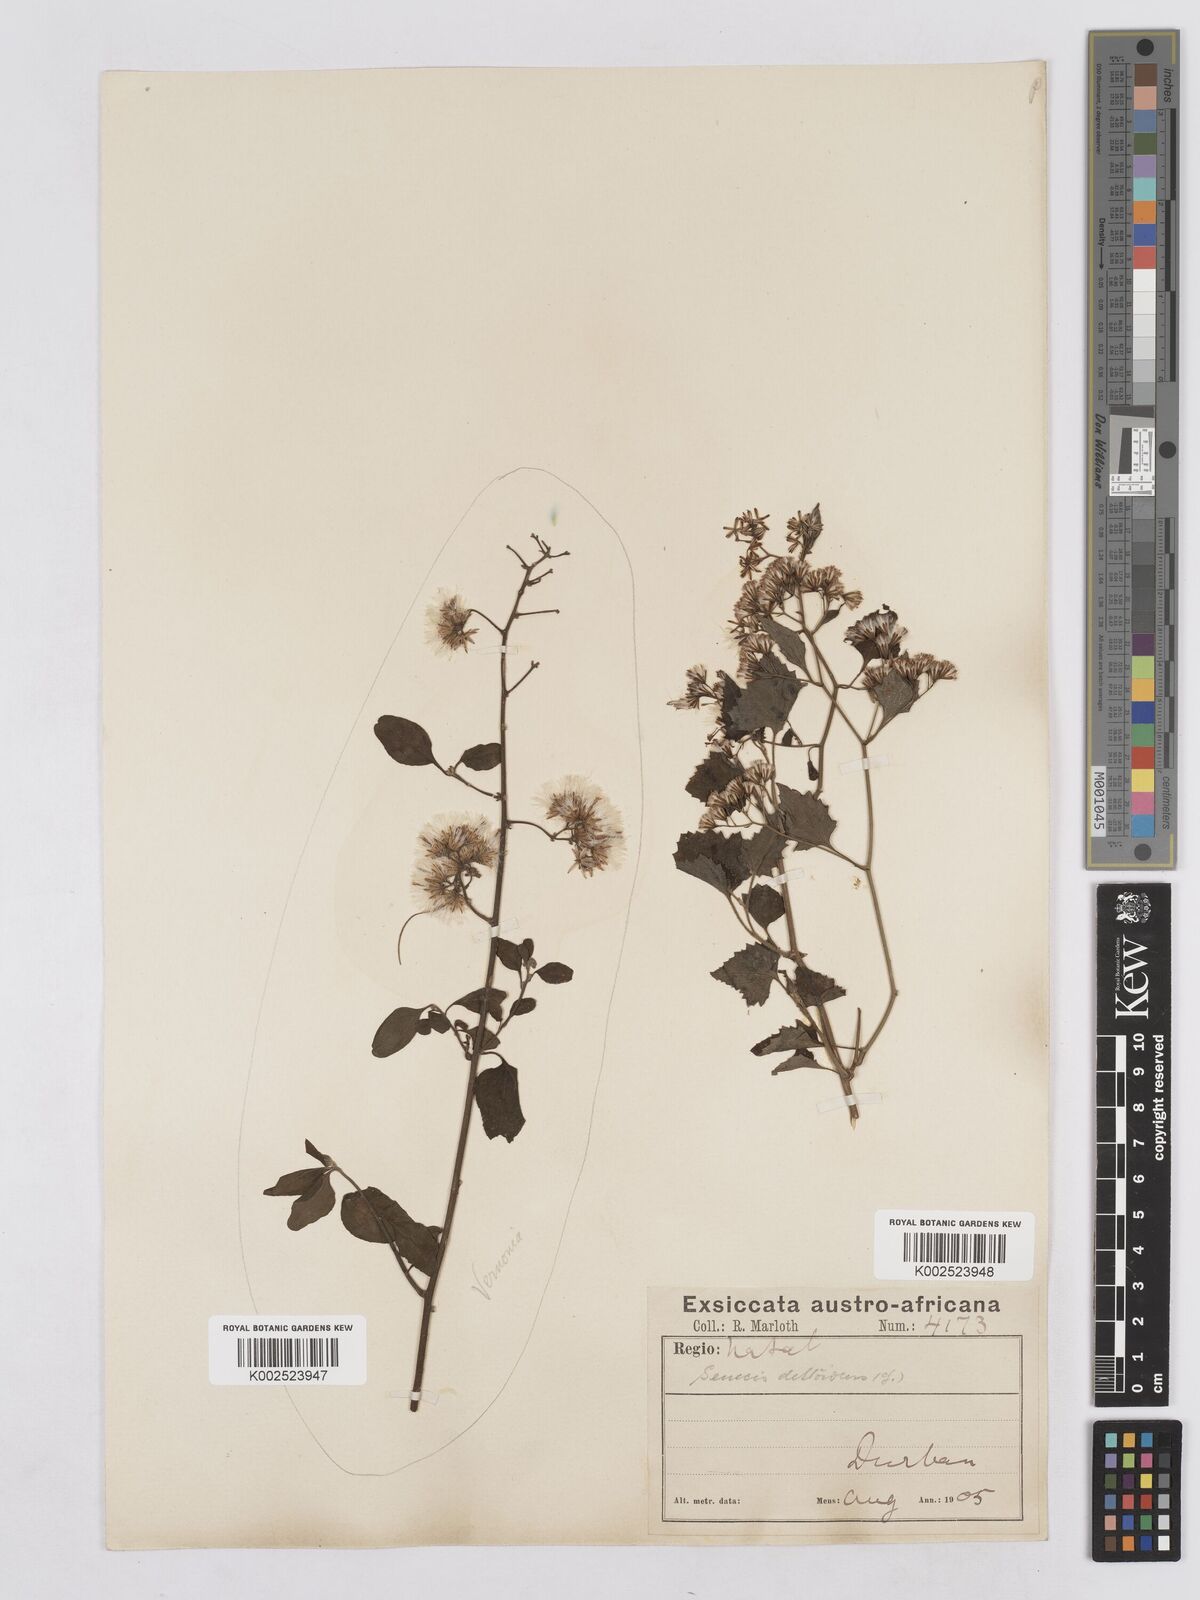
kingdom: Plantae
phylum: Tracheophyta
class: Magnoliopsida
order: Asterales
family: Asteraceae
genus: Senecio
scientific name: Senecio deltoideus
